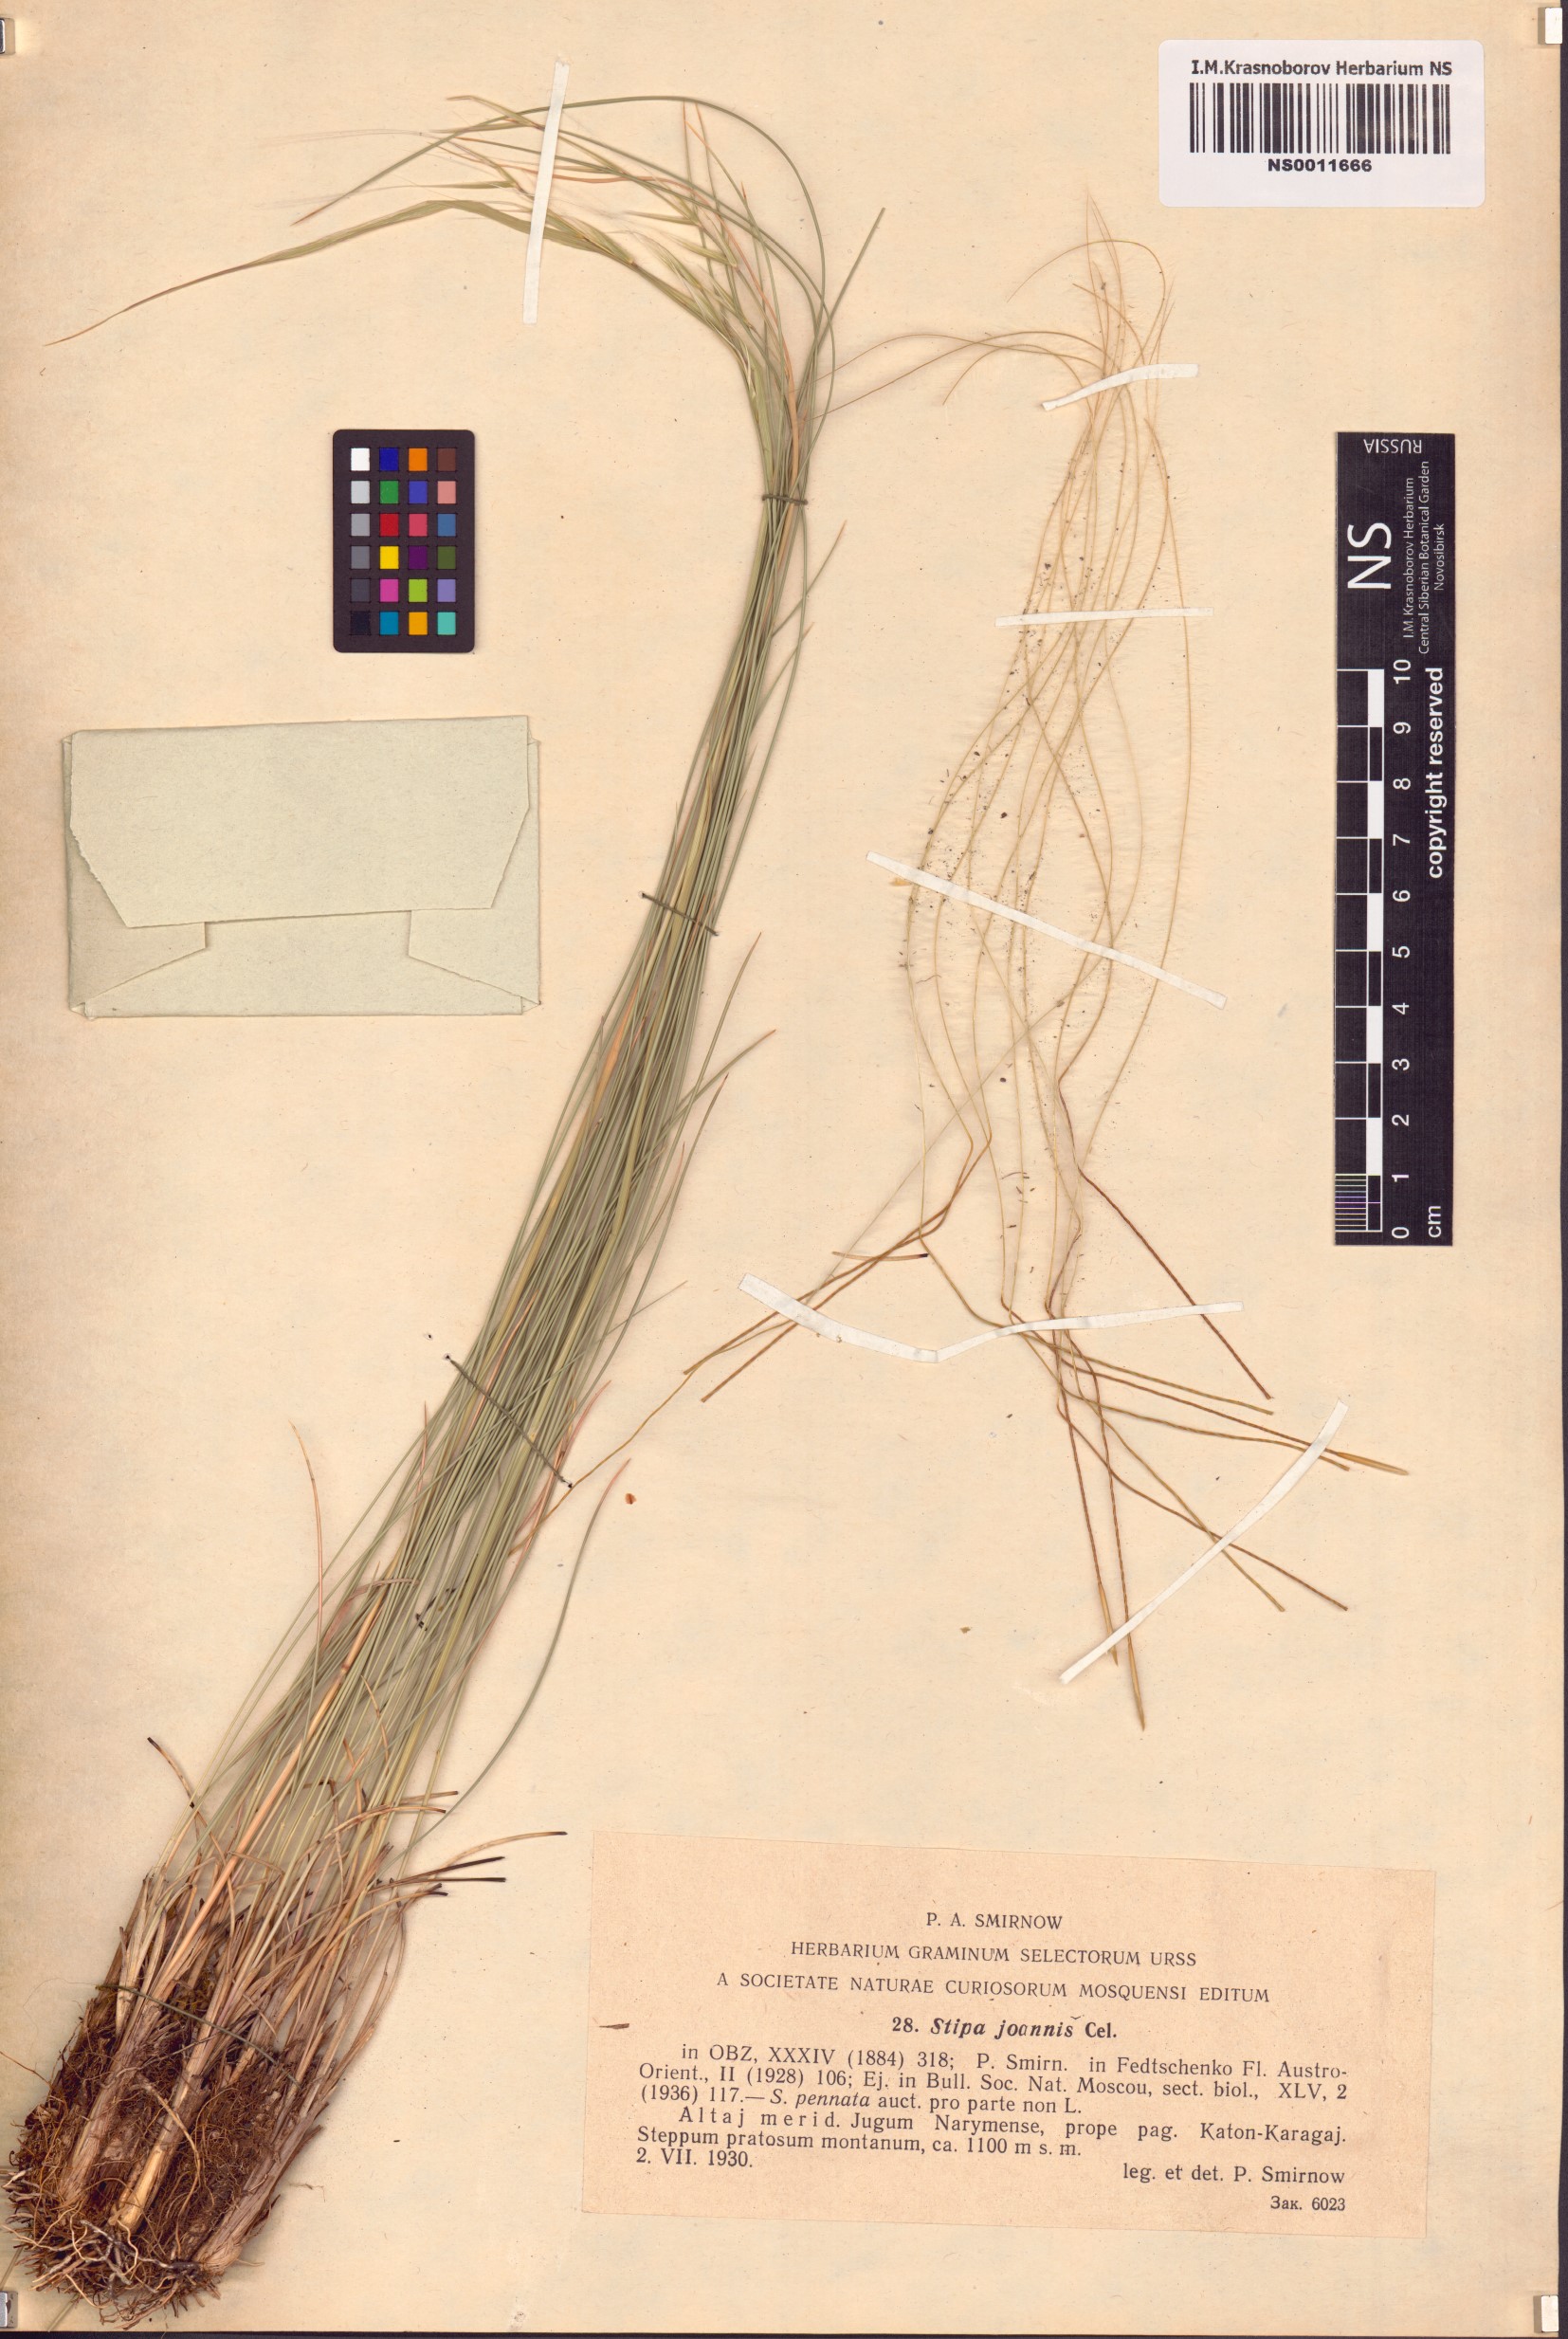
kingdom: Plantae
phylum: Tracheophyta
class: Liliopsida
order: Poales
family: Poaceae
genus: Stipa
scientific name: Stipa pennata
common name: European feather grass
